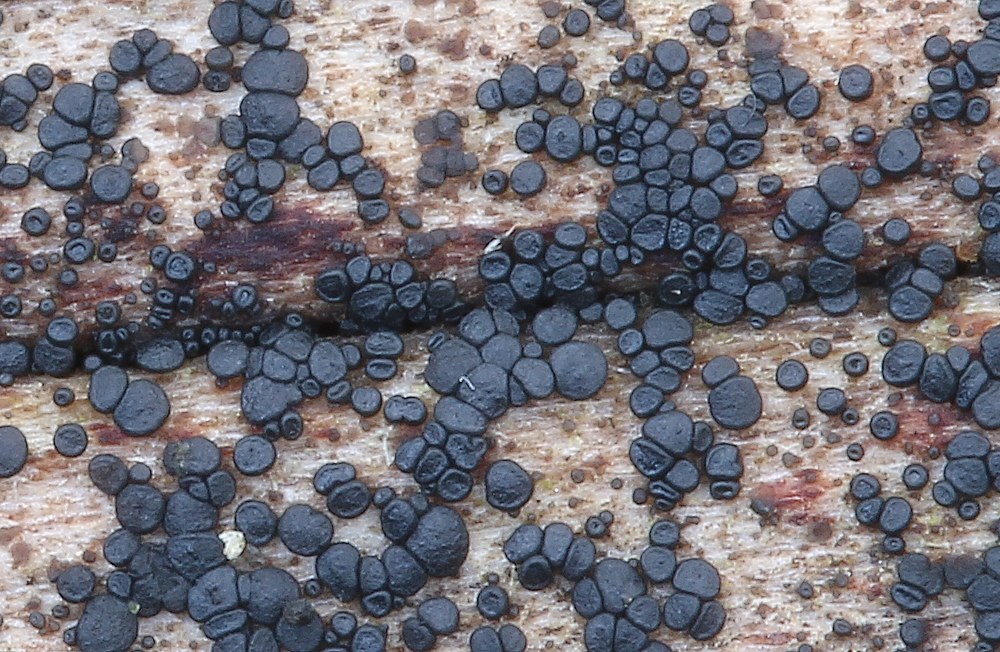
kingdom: Fungi
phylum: Ascomycota
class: Leotiomycetes
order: Helotiales
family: Helotiaceae
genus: Durella
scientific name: Durella macrospora
